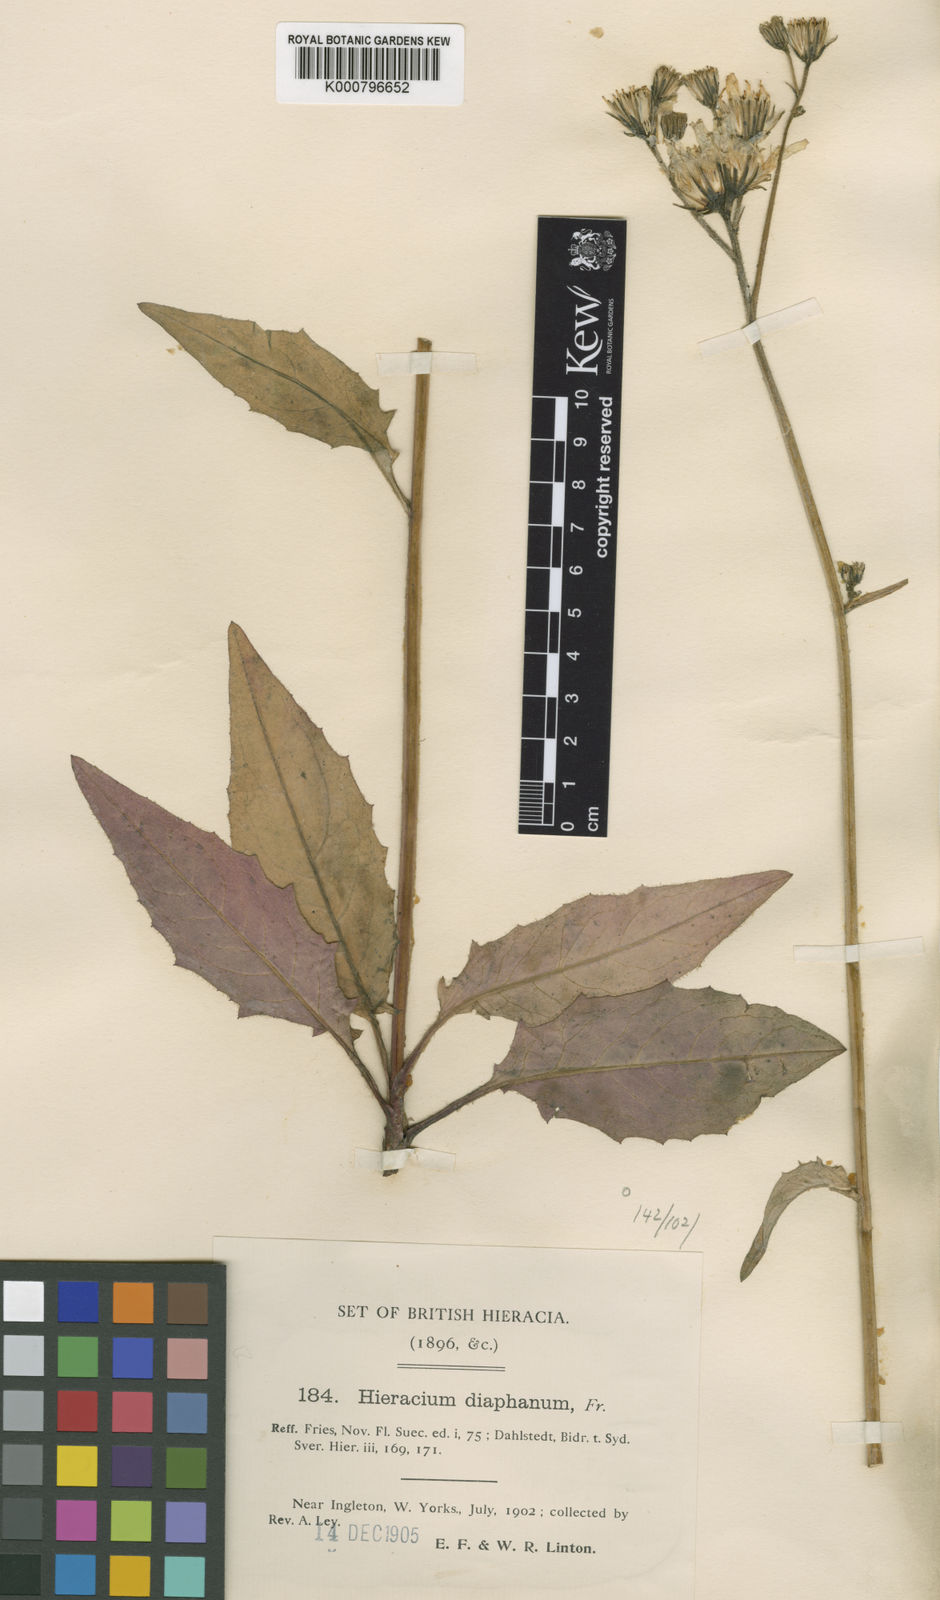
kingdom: Plantae
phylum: Tracheophyta
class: Magnoliopsida
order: Asterales
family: Asteraceae
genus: Hieracium
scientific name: Hieracium praesigne
